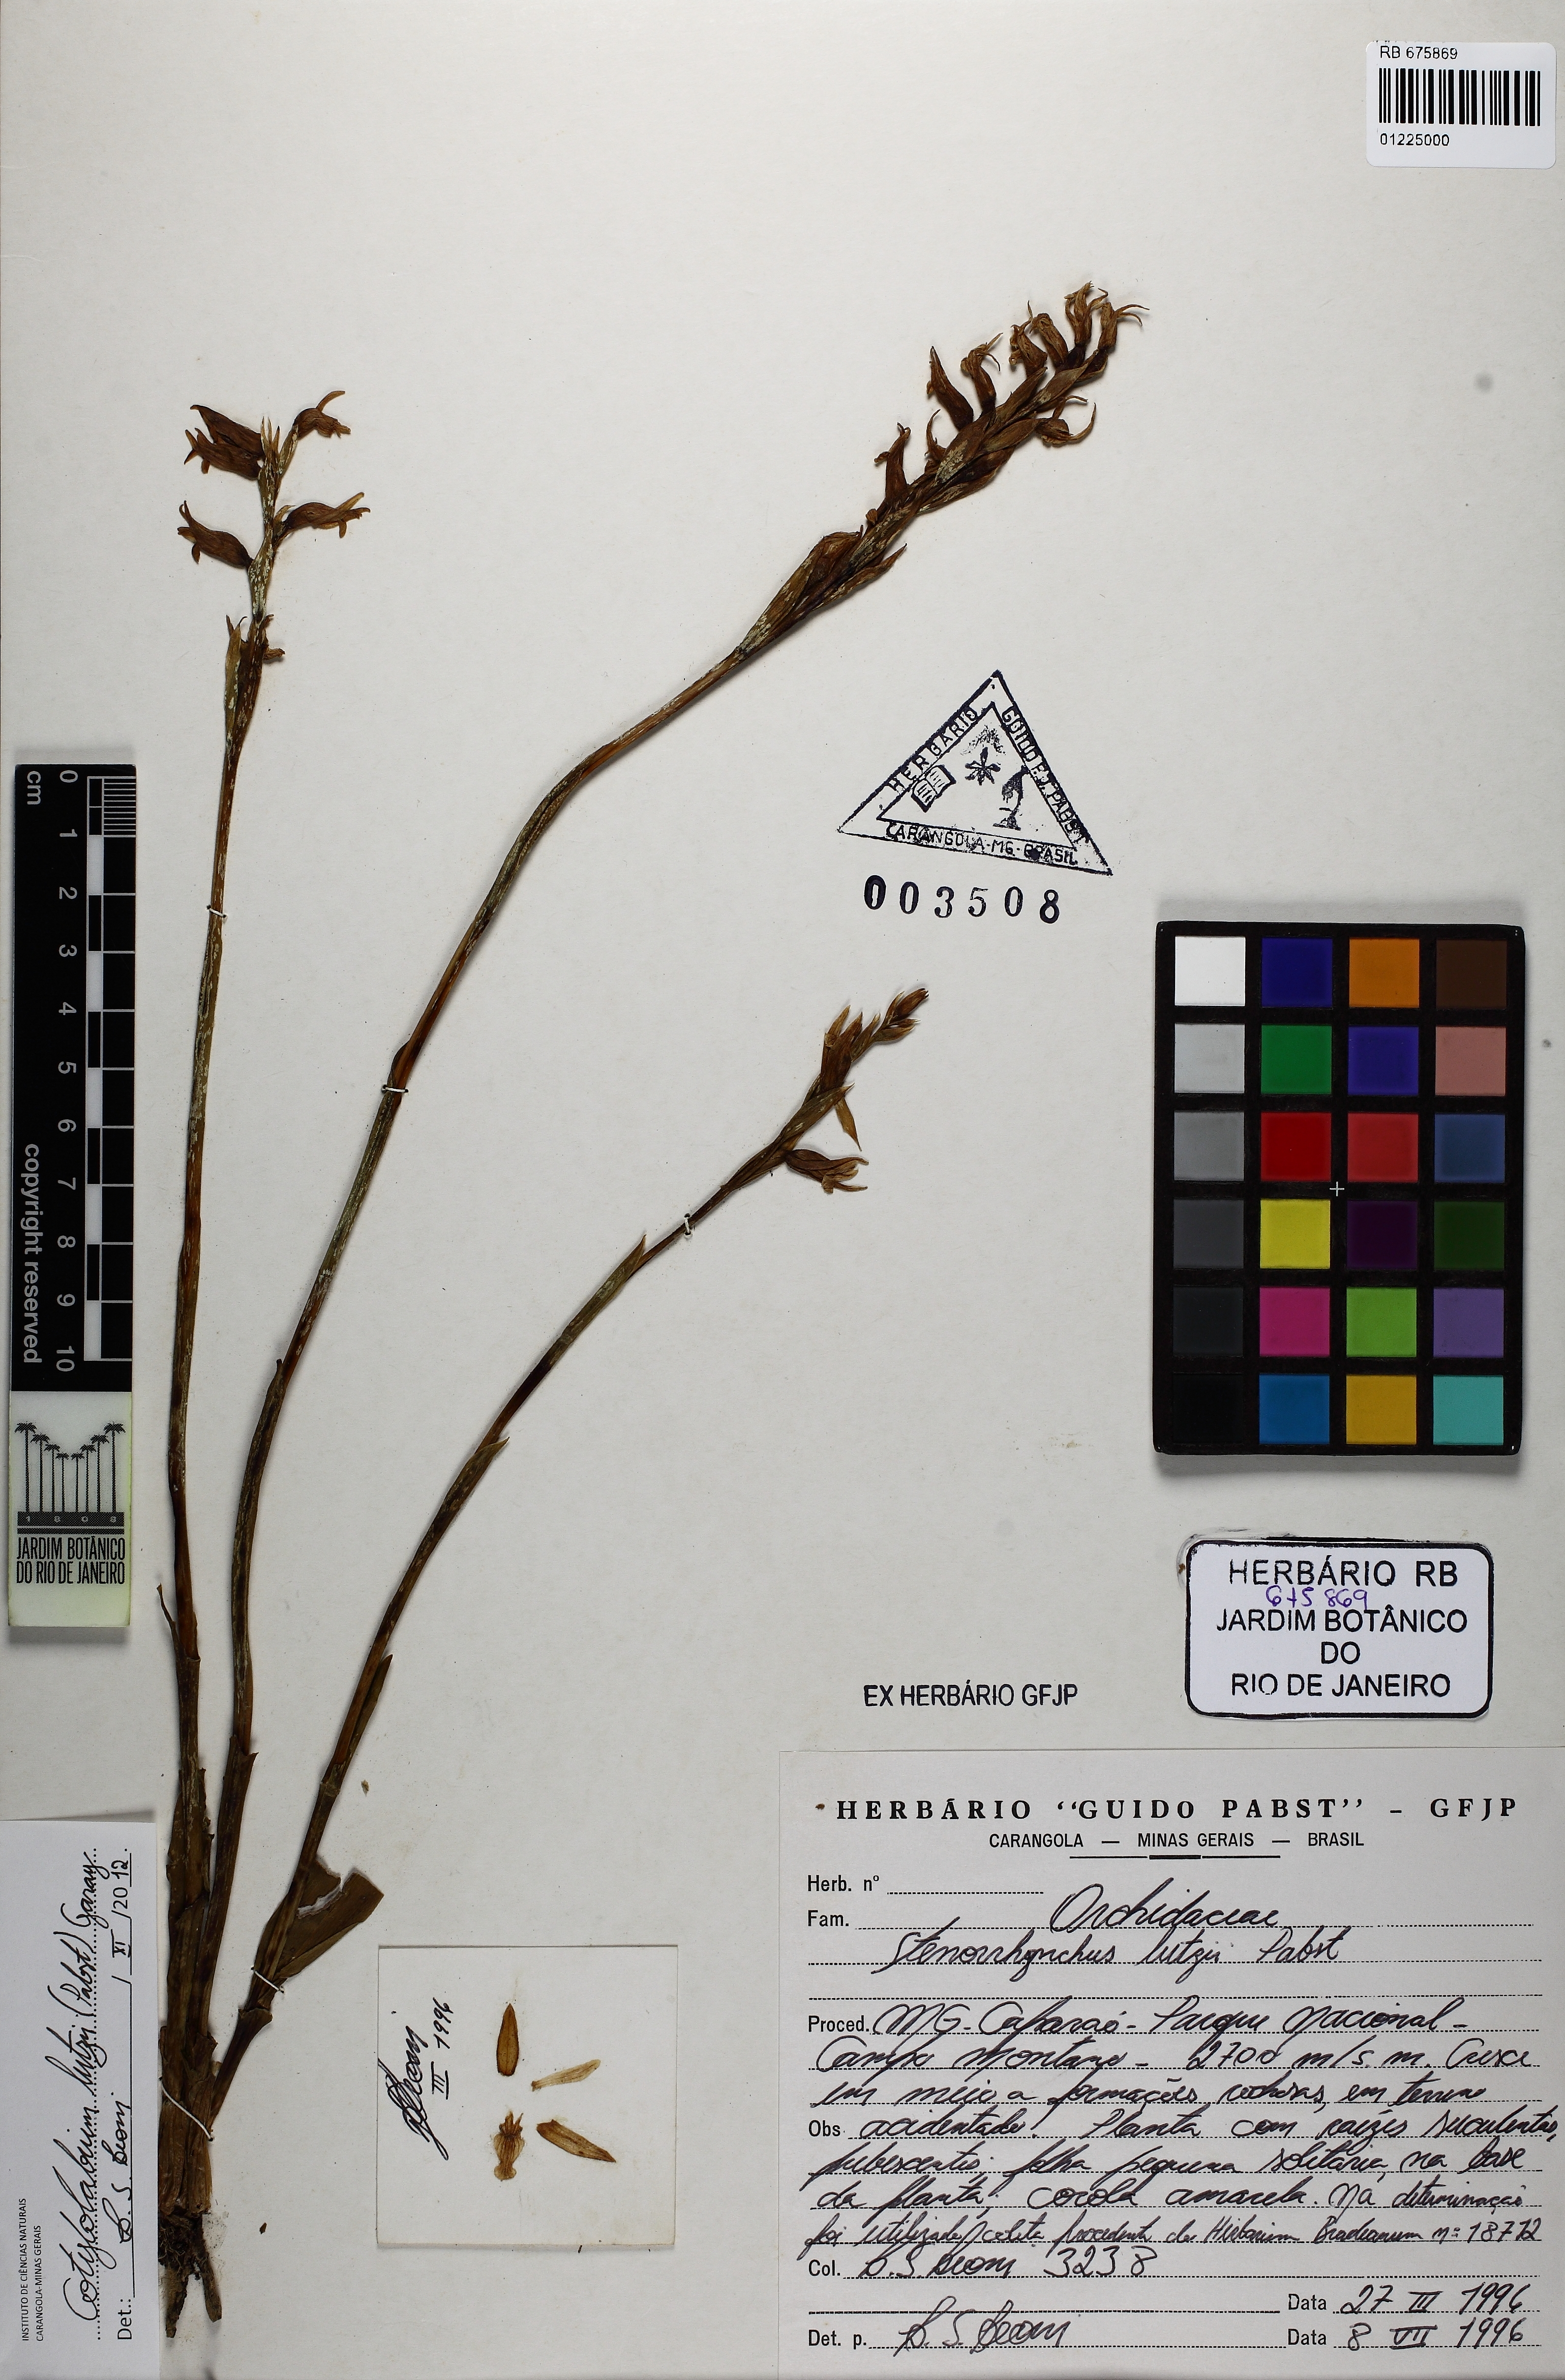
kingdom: Plantae
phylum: Tracheophyta
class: Liliopsida
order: Asparagales
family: Orchidaceae
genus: Cotylolabium
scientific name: Cotylolabium lutzii
